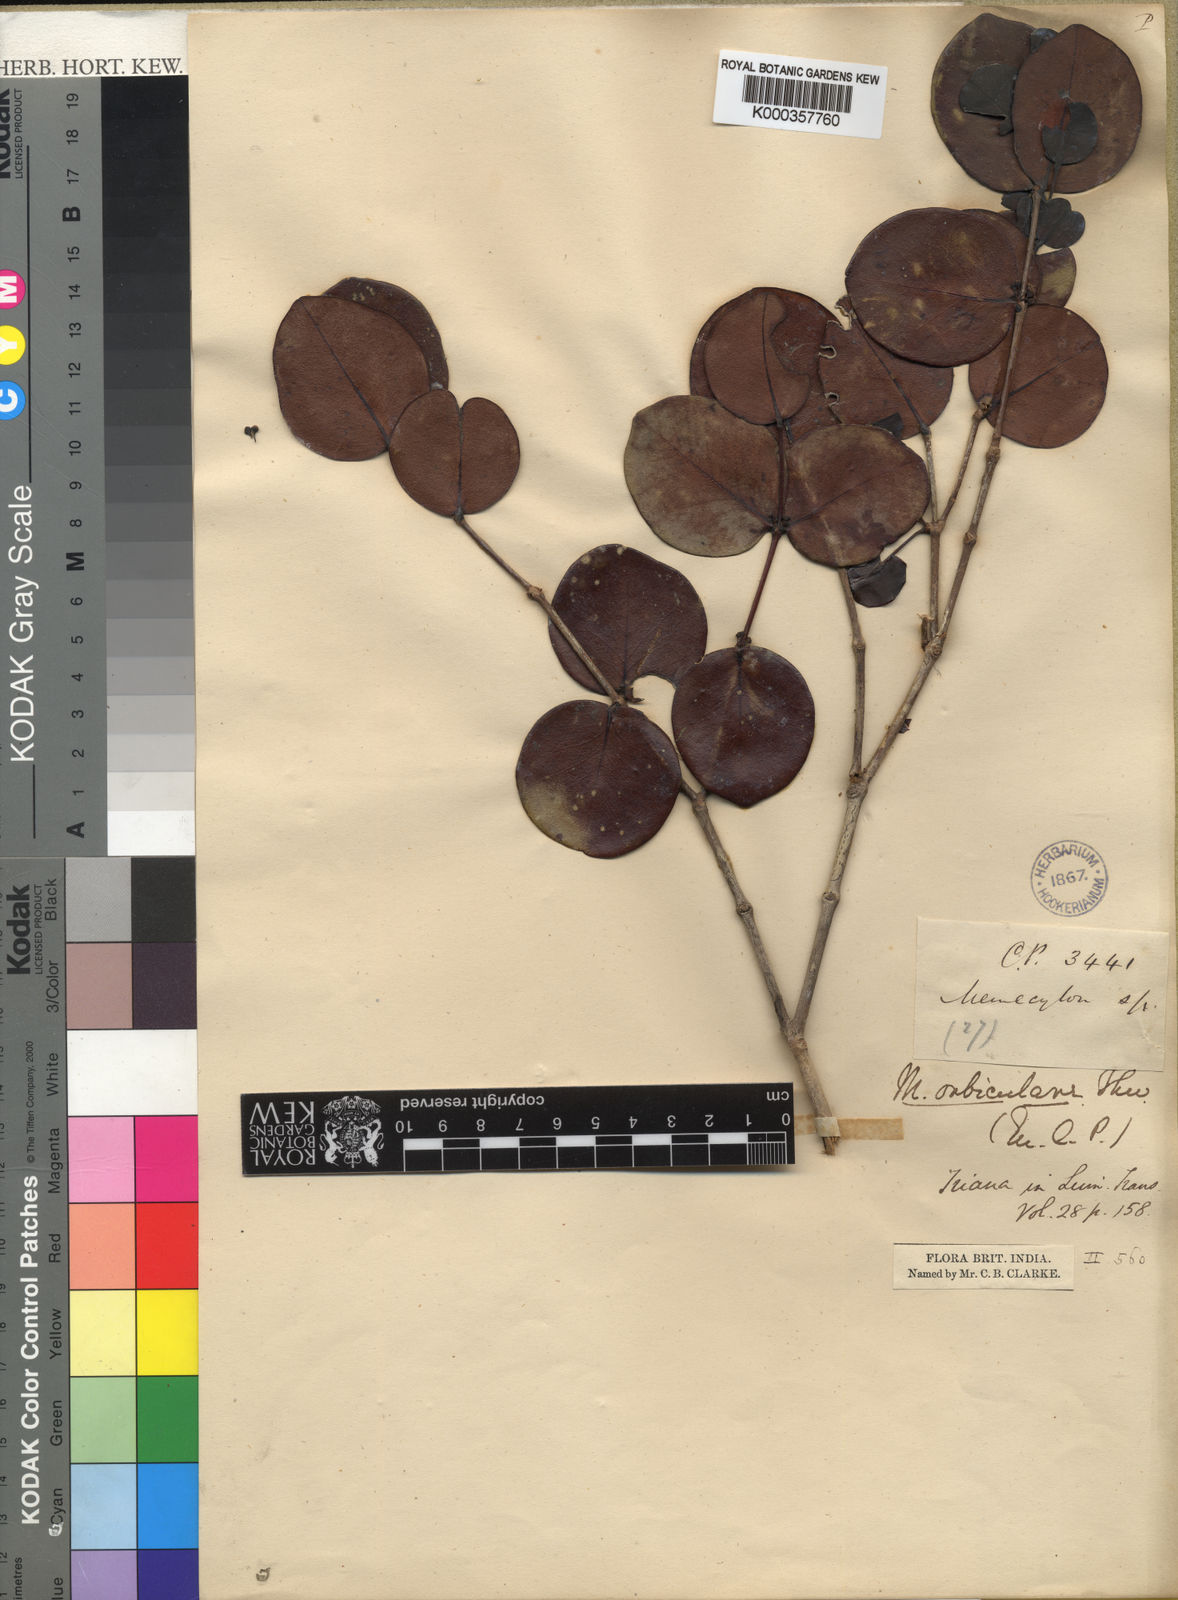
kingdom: Plantae
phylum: Tracheophyta
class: Magnoliopsida
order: Myrtales
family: Melastomataceae
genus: Memecylon
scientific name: Memecylon orbiculare
